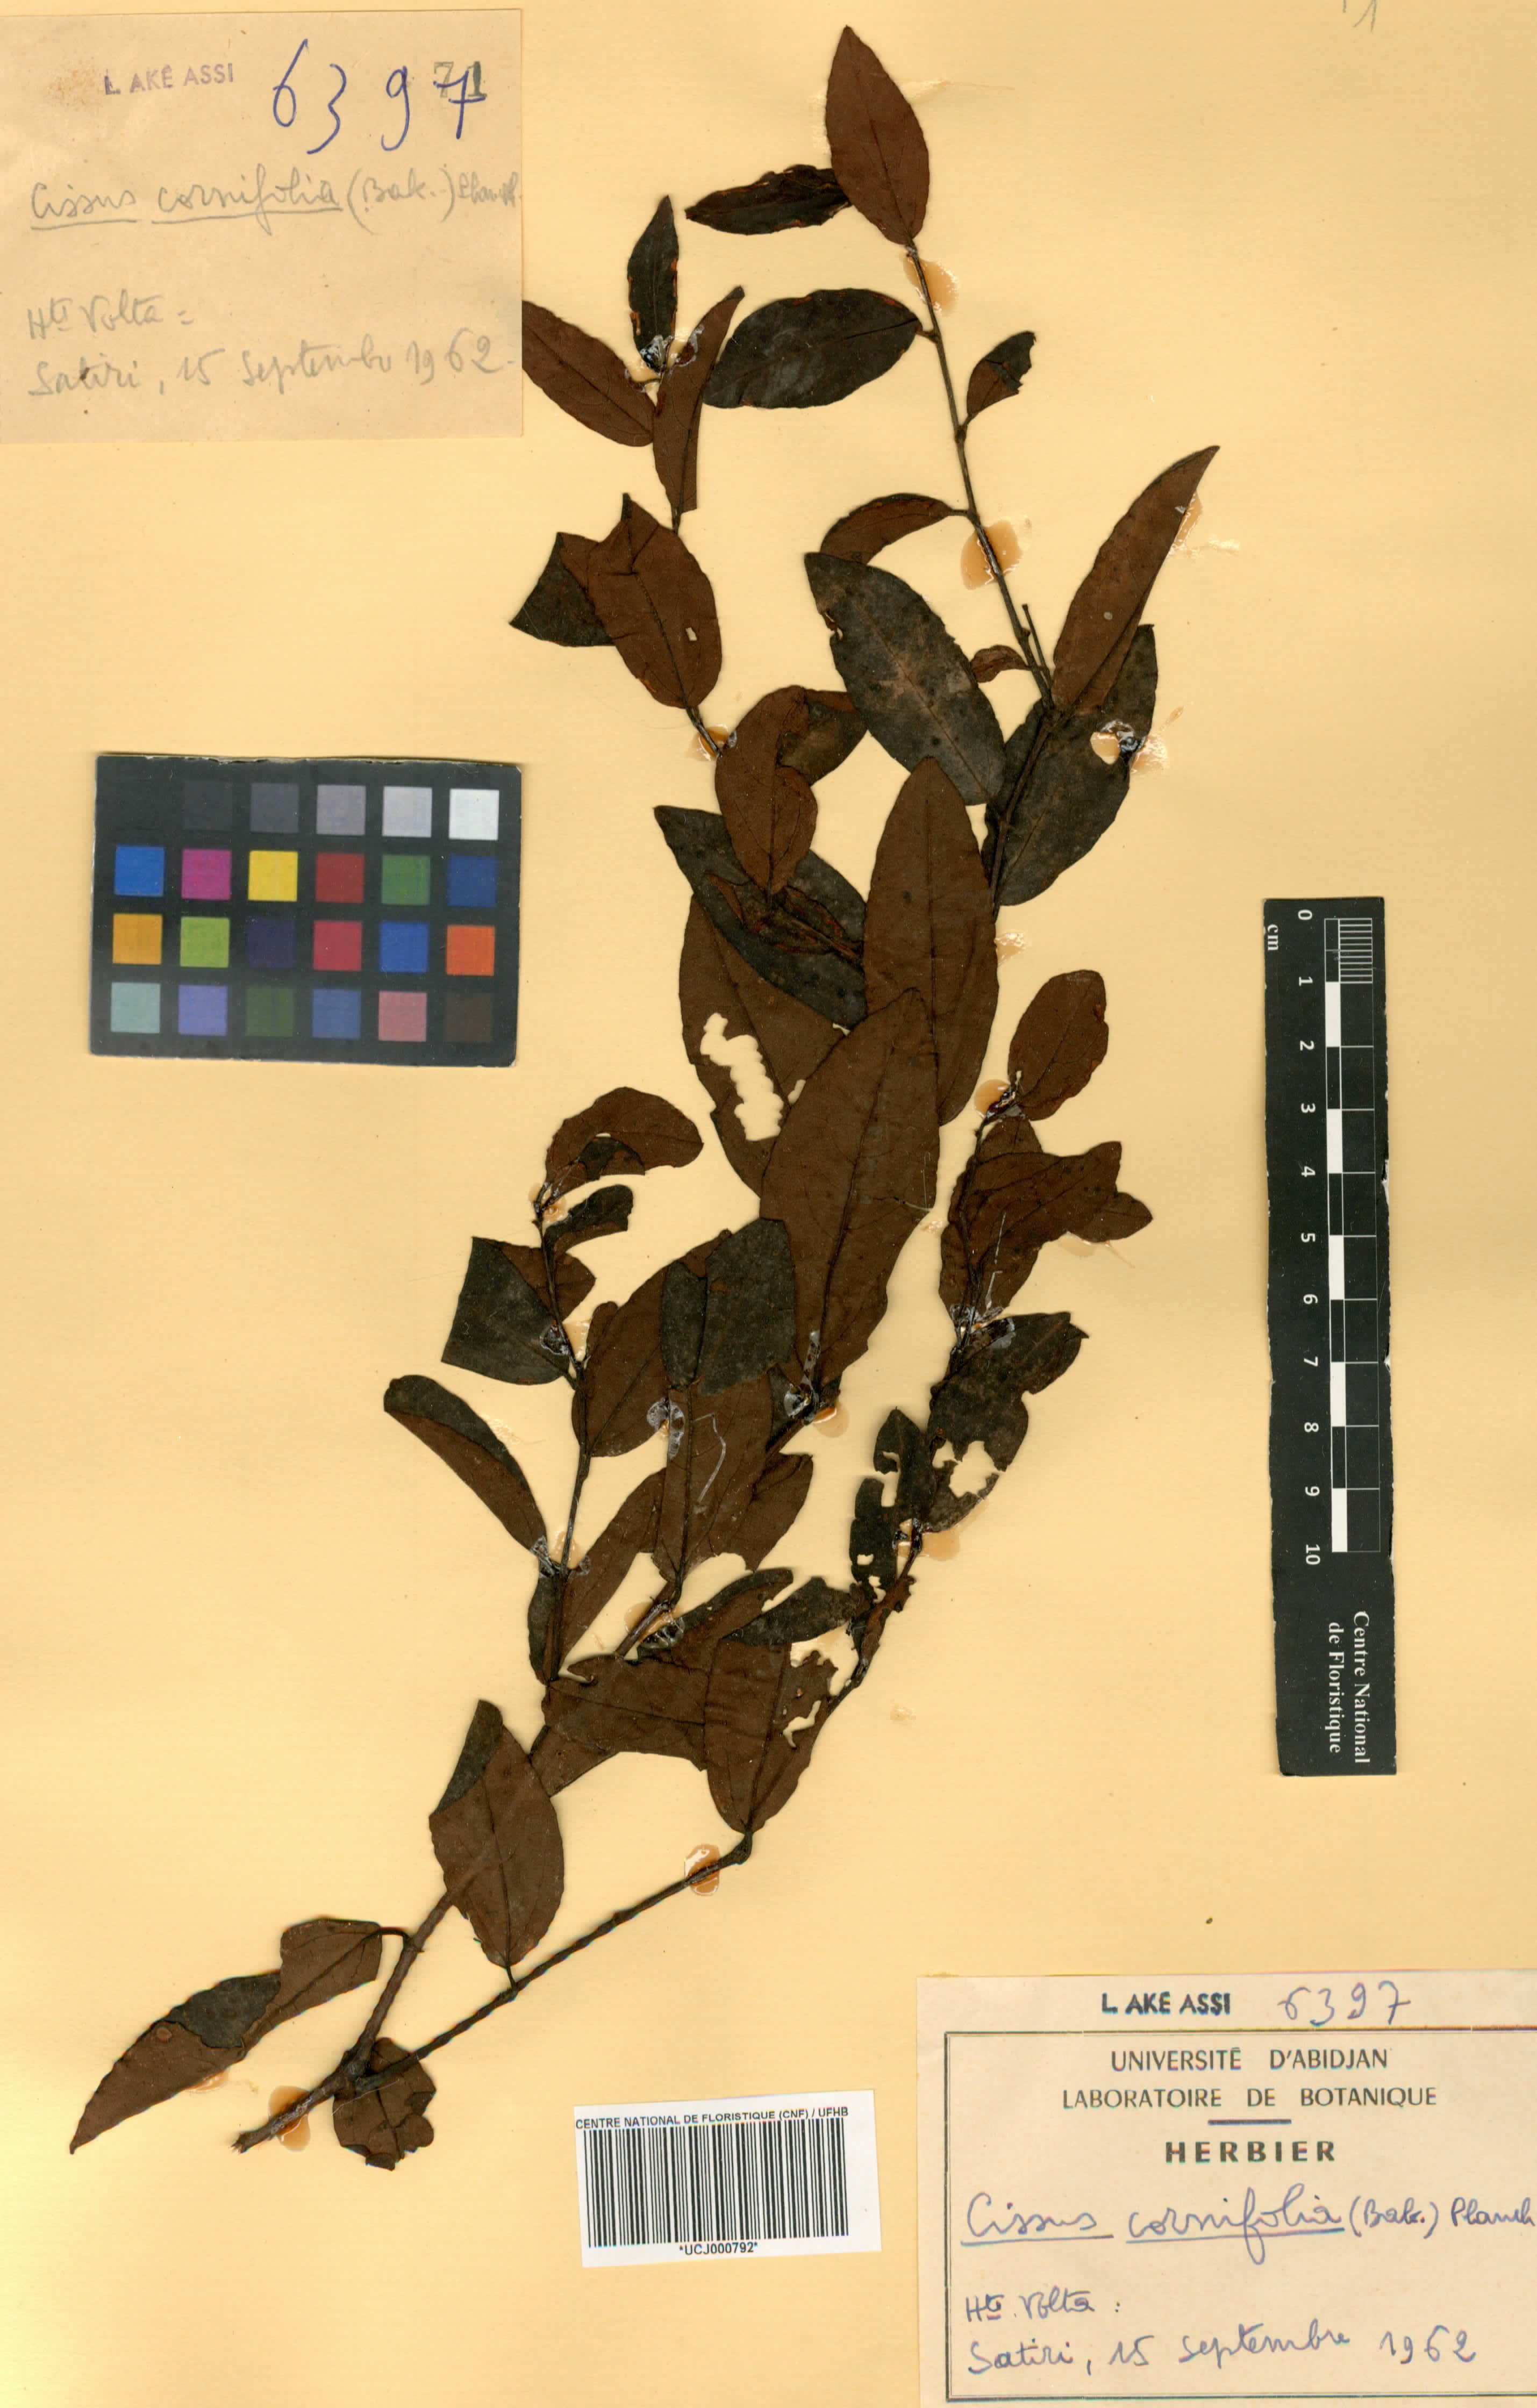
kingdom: Plantae
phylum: Tracheophyta
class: Magnoliopsida
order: Vitales
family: Vitaceae
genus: Cissus
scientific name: Cissus cornifolia
